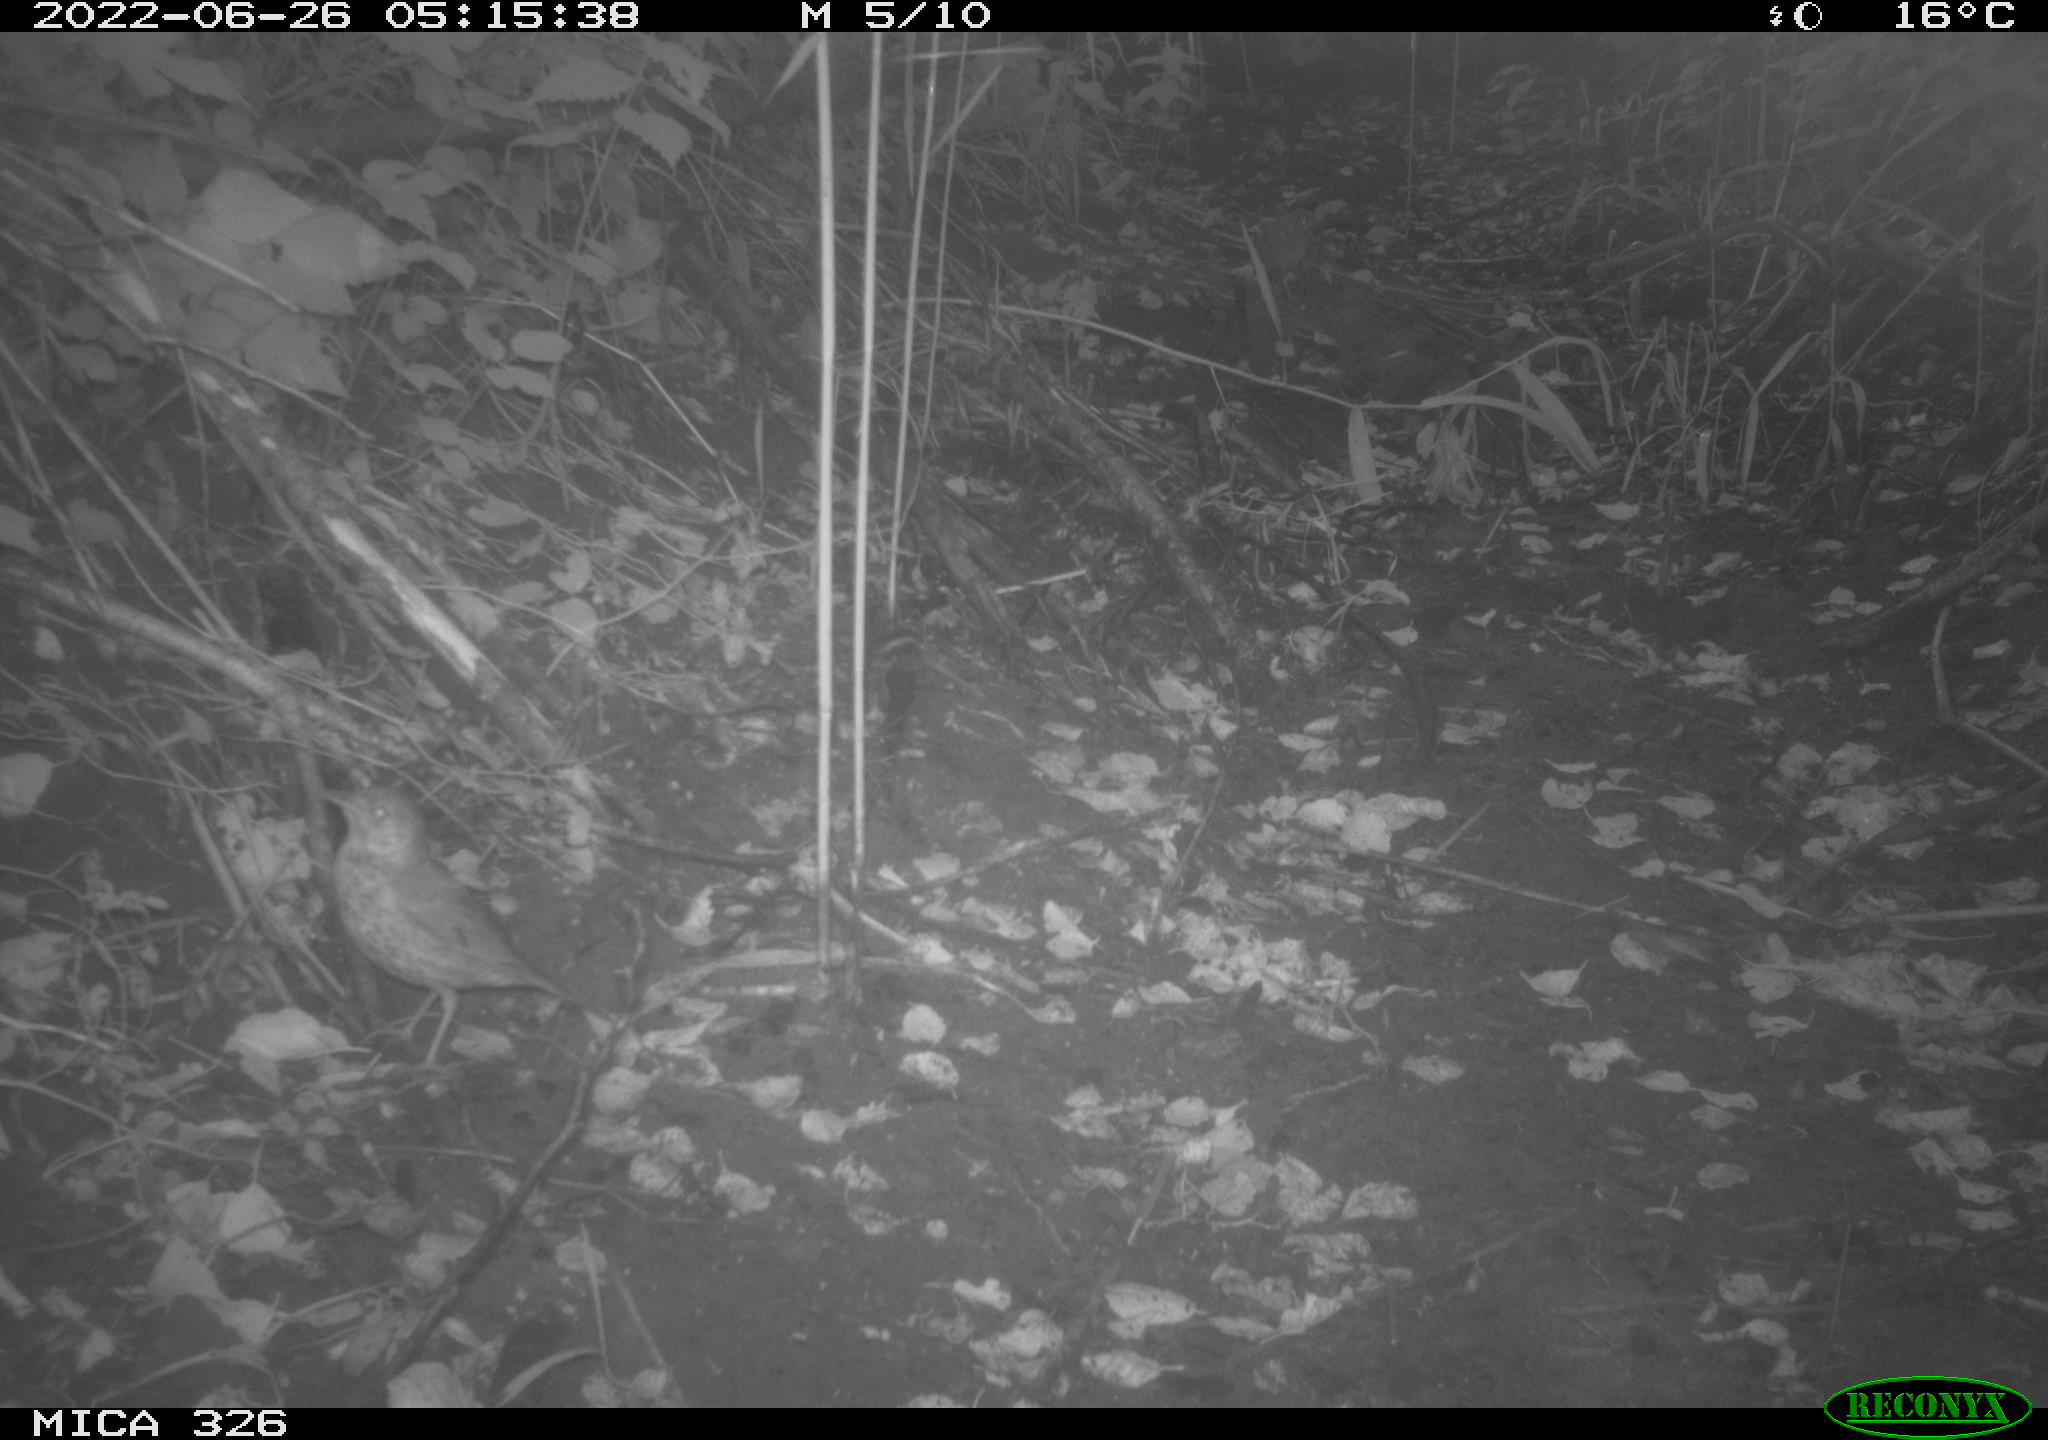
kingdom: Animalia
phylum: Chordata
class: Aves
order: Passeriformes
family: Turdidae
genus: Turdus
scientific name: Turdus
